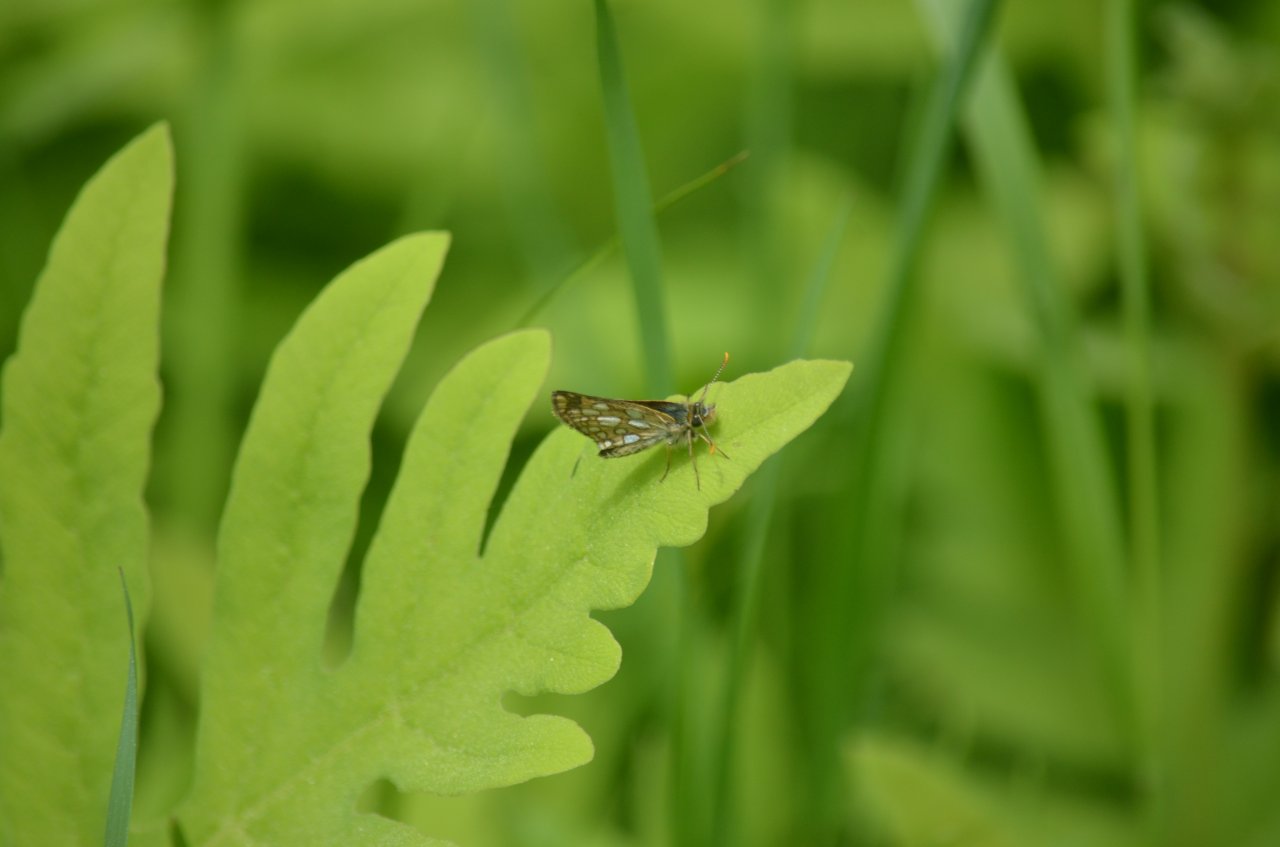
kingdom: Animalia
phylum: Arthropoda
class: Insecta
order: Lepidoptera
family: Hesperiidae
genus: Carterocephalus
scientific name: Carterocephalus palaemon
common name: Chequered Skipper
